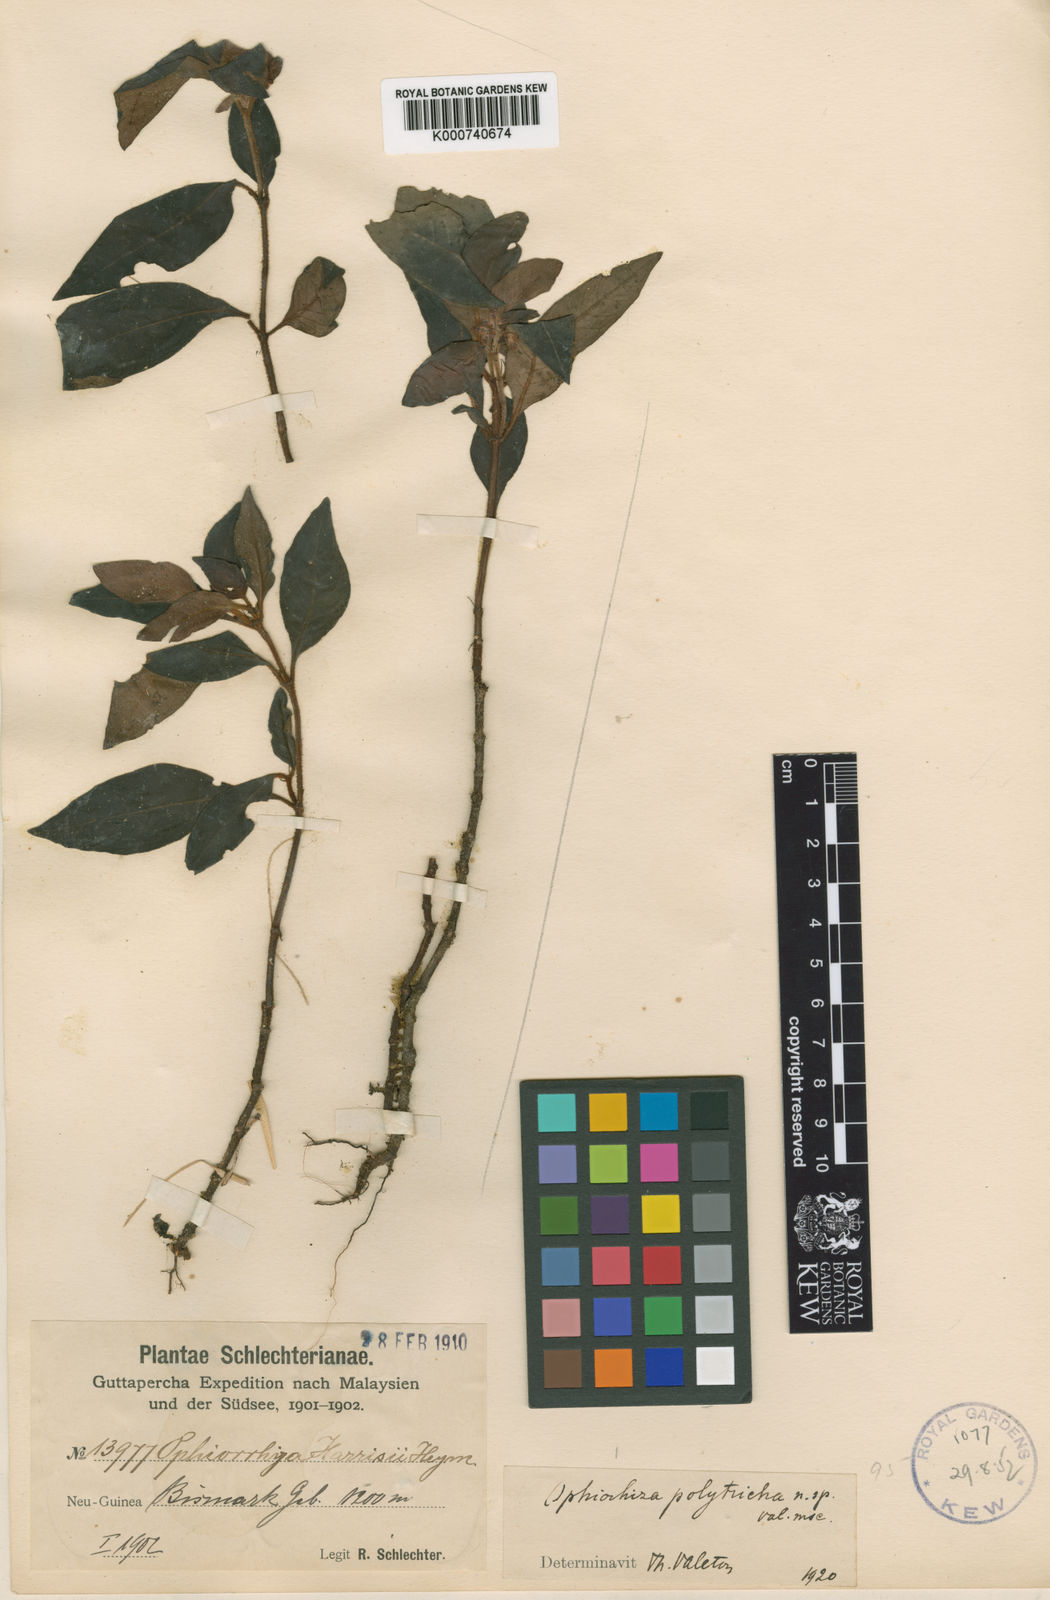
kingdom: Plantae
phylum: Tracheophyta
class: Magnoliopsida
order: Gentianales
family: Rubiaceae
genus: Ophiorrhiza
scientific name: Ophiorrhiza polytricha
